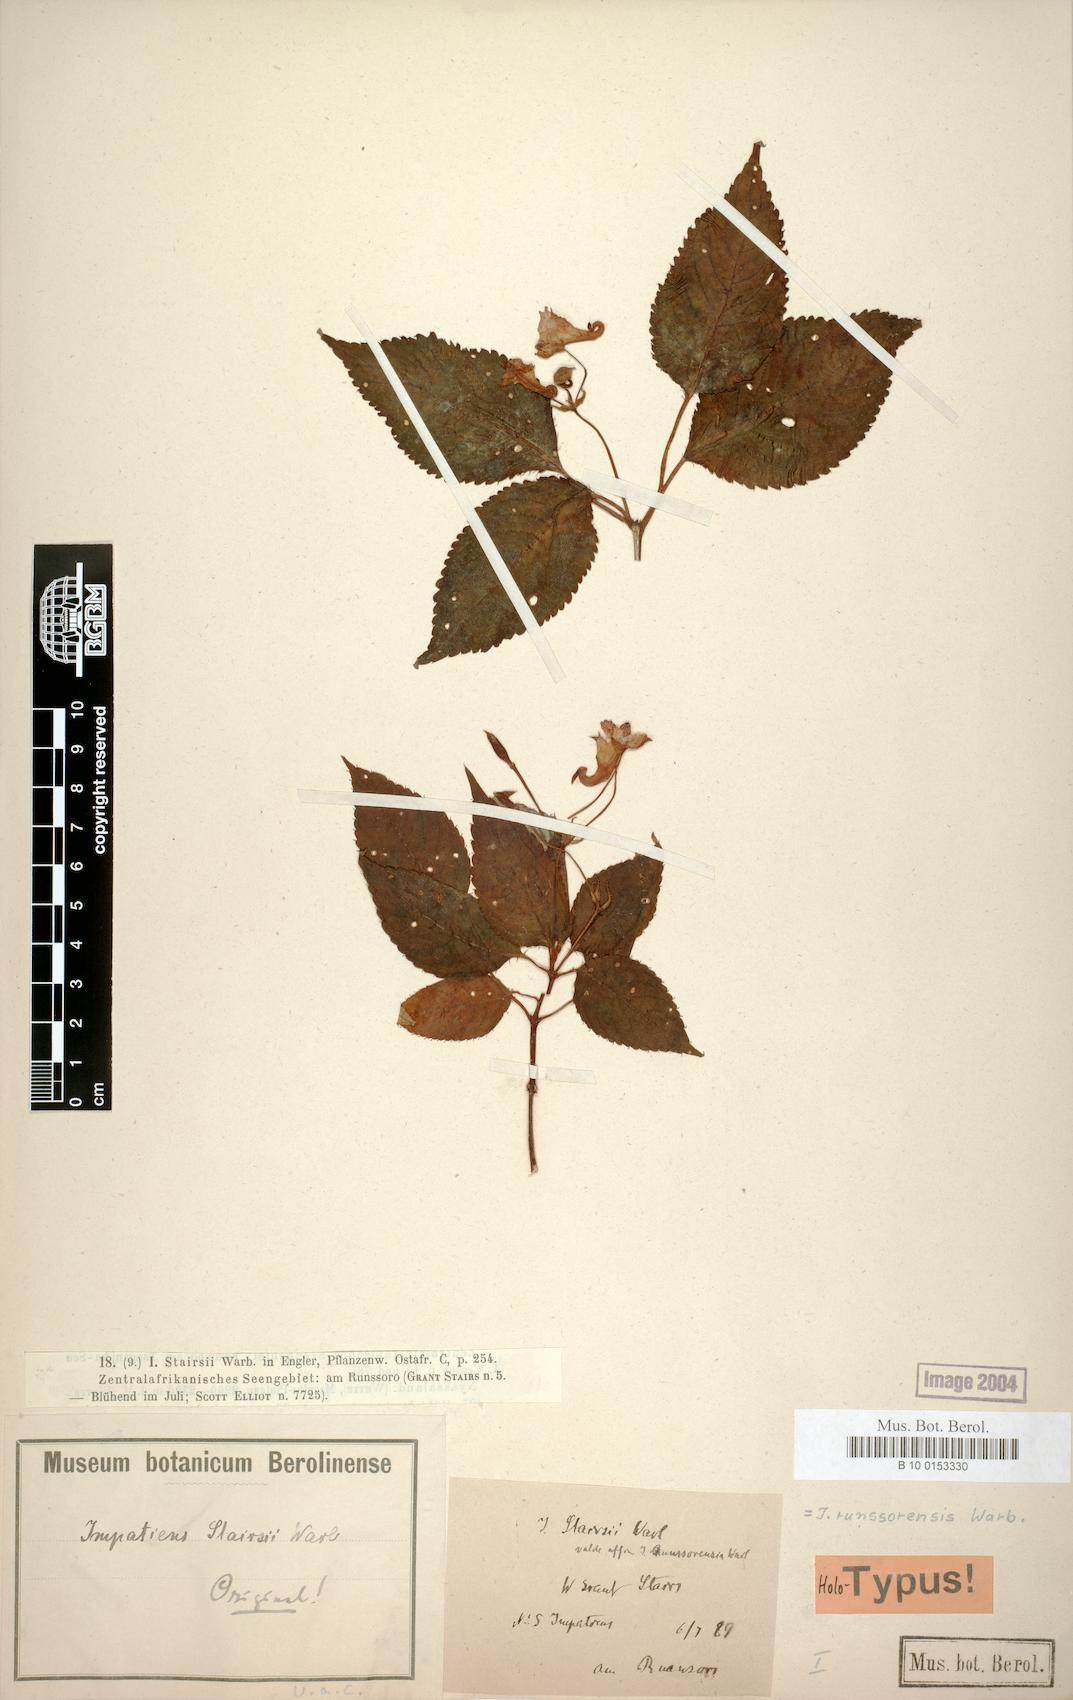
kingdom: Plantae
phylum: Tracheophyta
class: Magnoliopsida
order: Ericales
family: Balsaminaceae
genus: Impatiens
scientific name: Impatiens runssorensis
